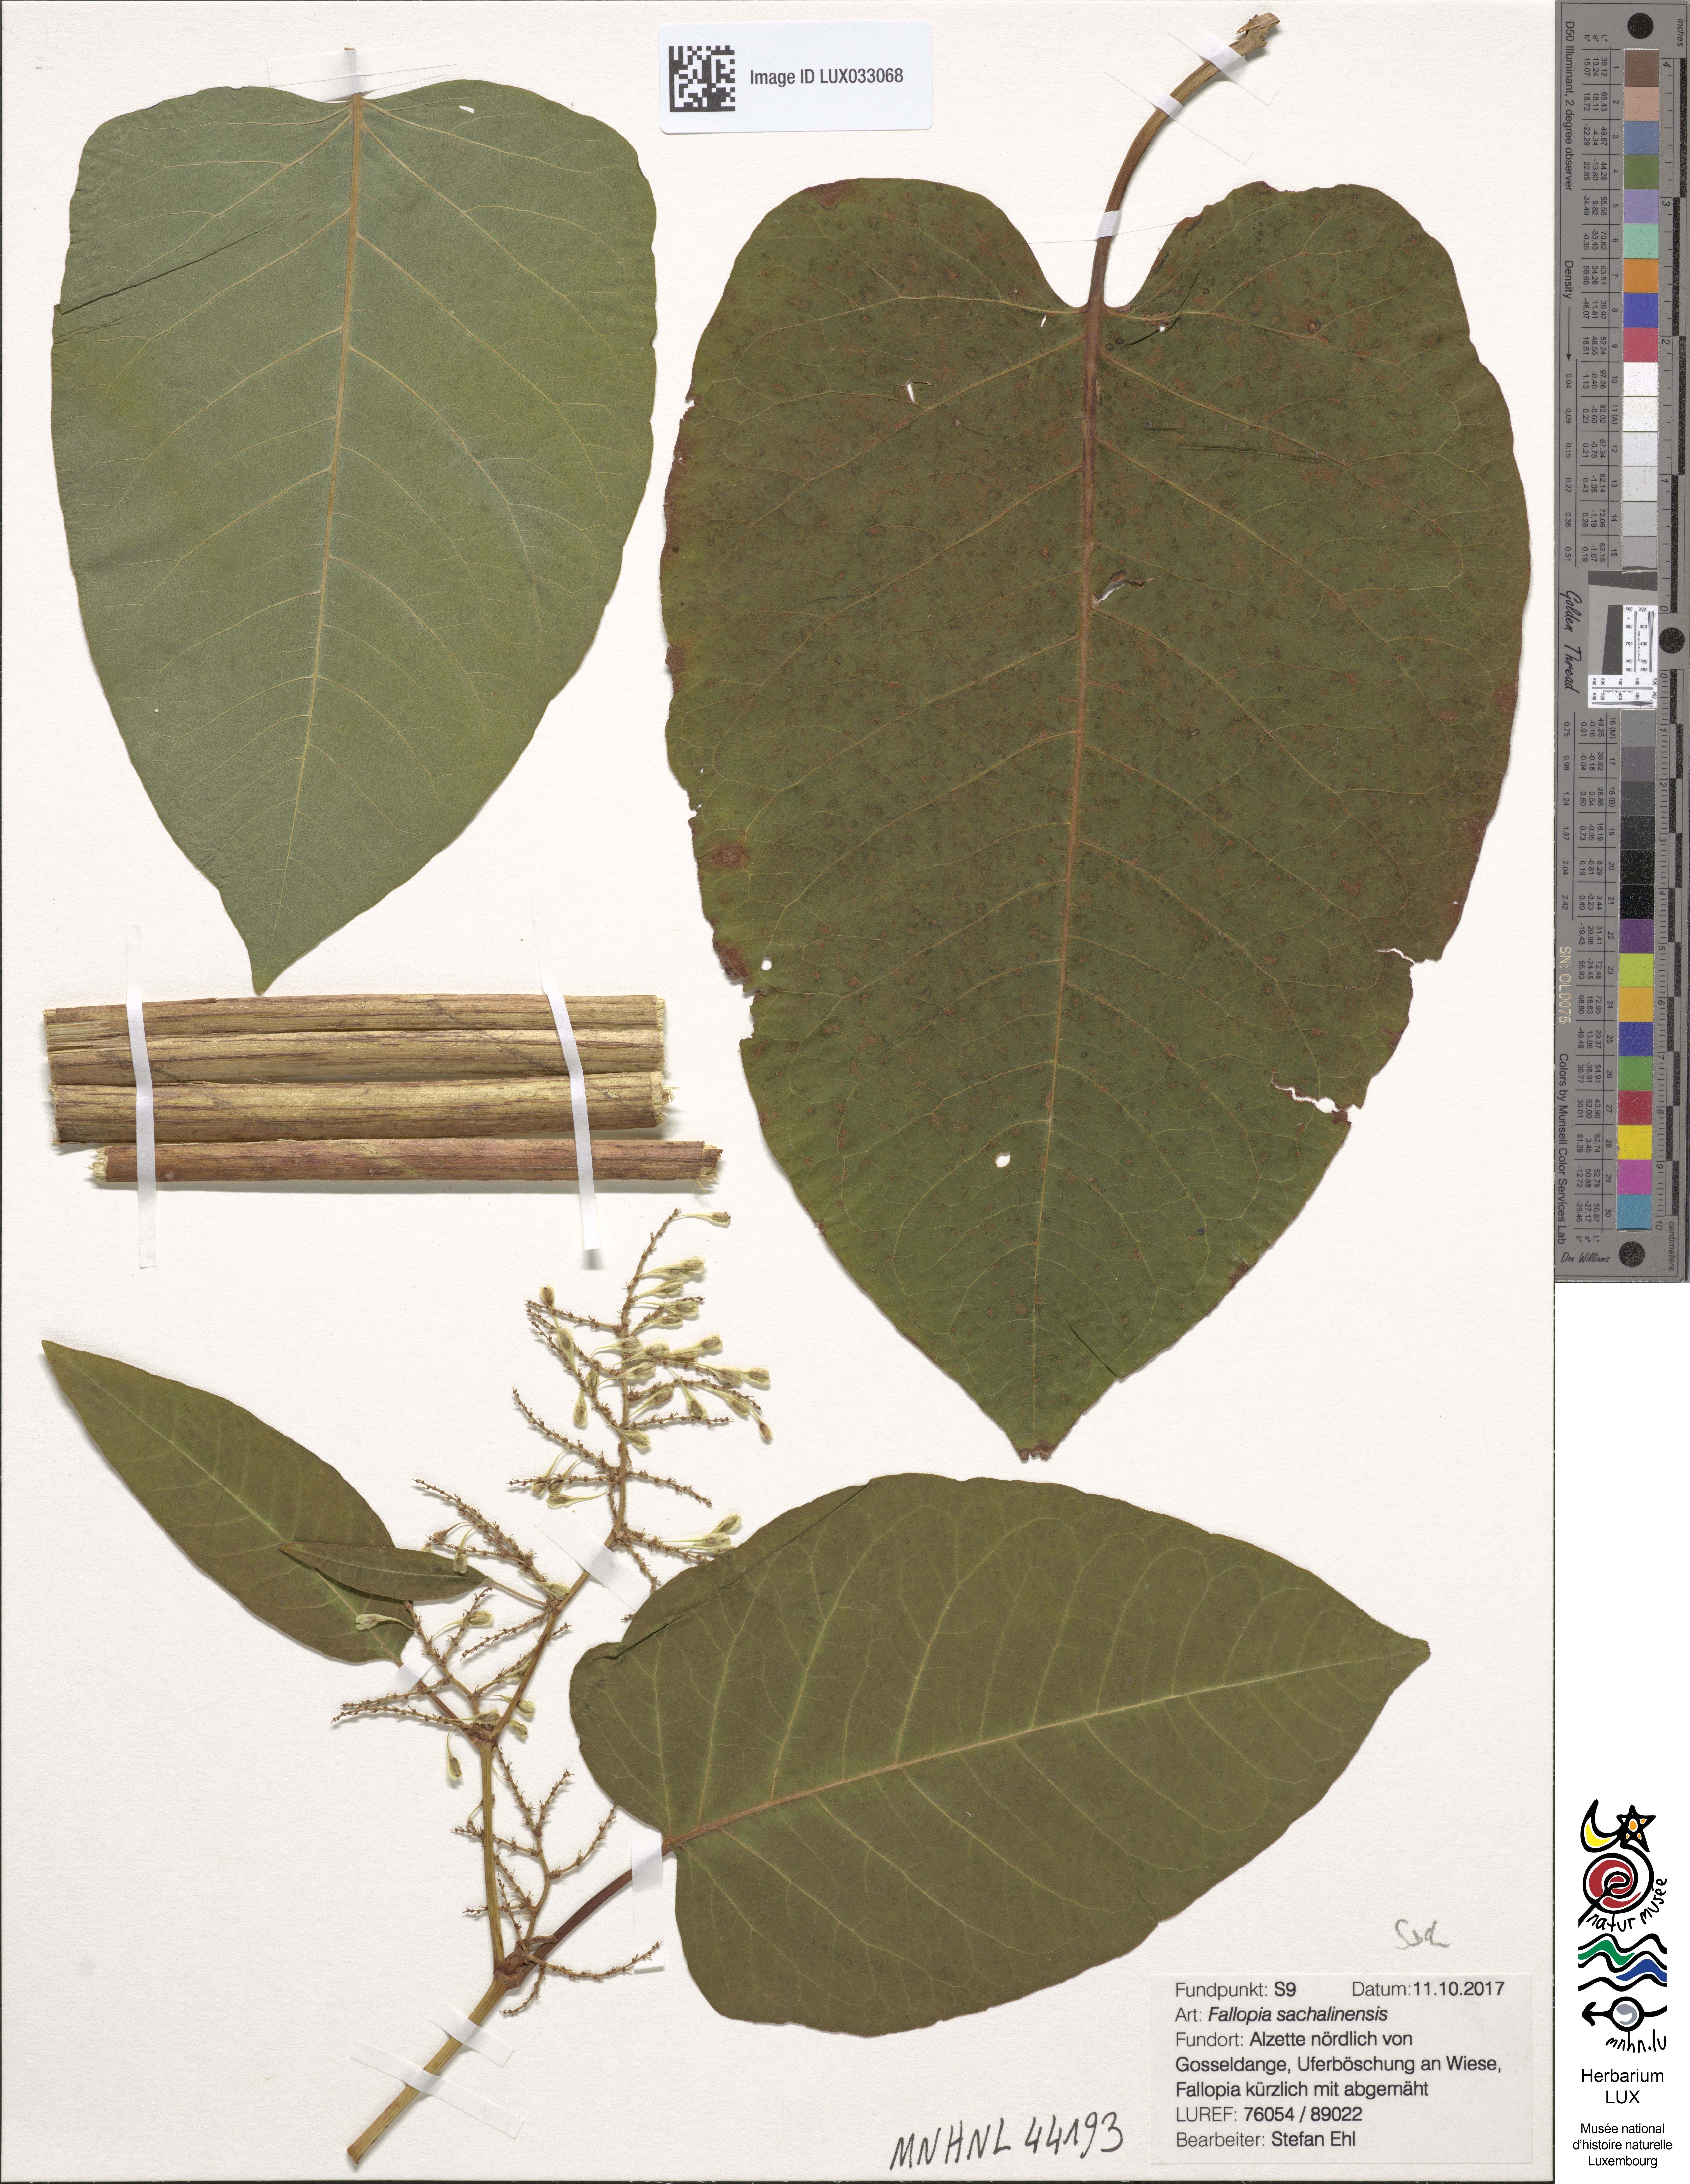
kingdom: Plantae
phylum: Tracheophyta
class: Magnoliopsida
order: Caryophyllales
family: Polygonaceae
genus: Reynoutria
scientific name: Reynoutria sachalinensis
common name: Giant knotweed
